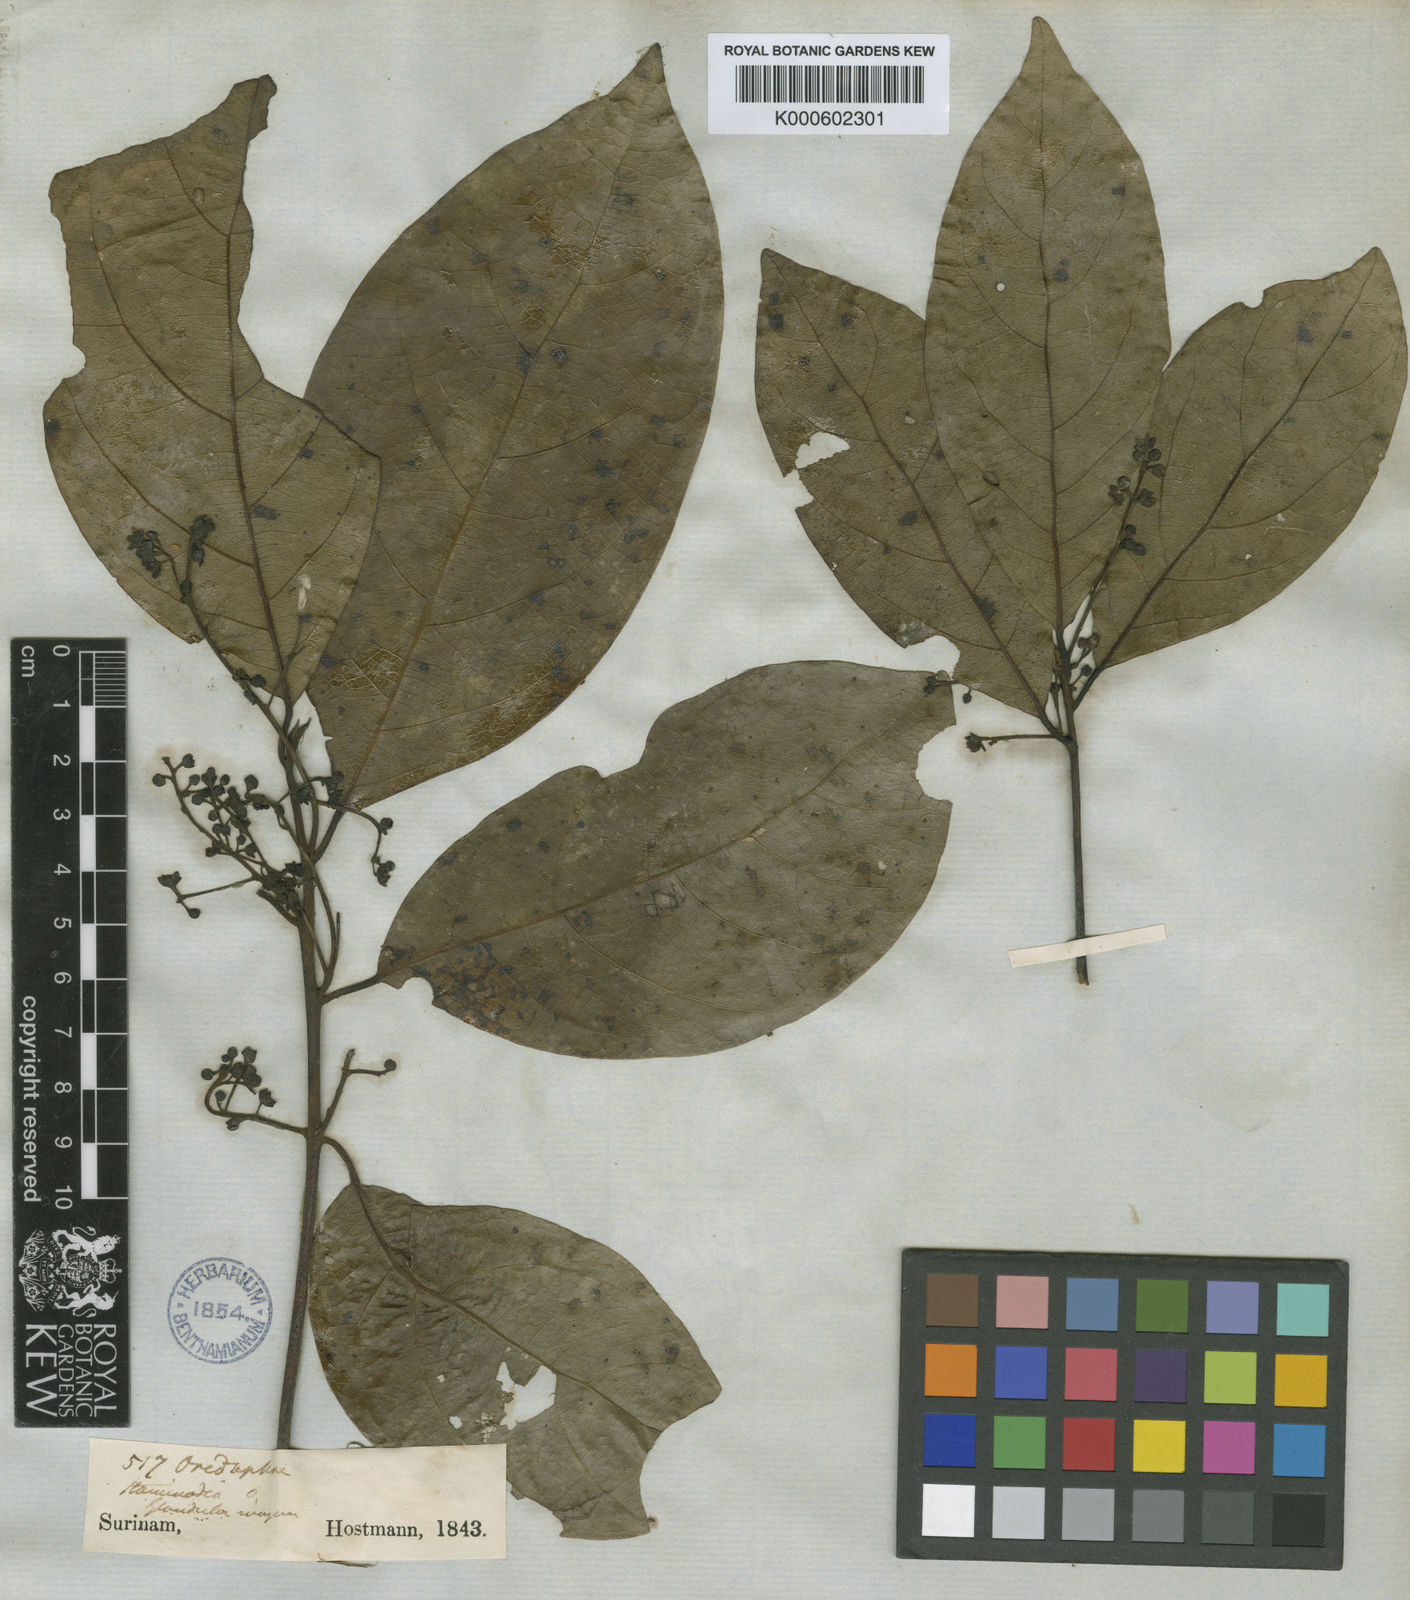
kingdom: Plantae
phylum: Tracheophyta
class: Magnoliopsida
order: Laurales
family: Lauraceae
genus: Ocotea
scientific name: Ocotea puberula
